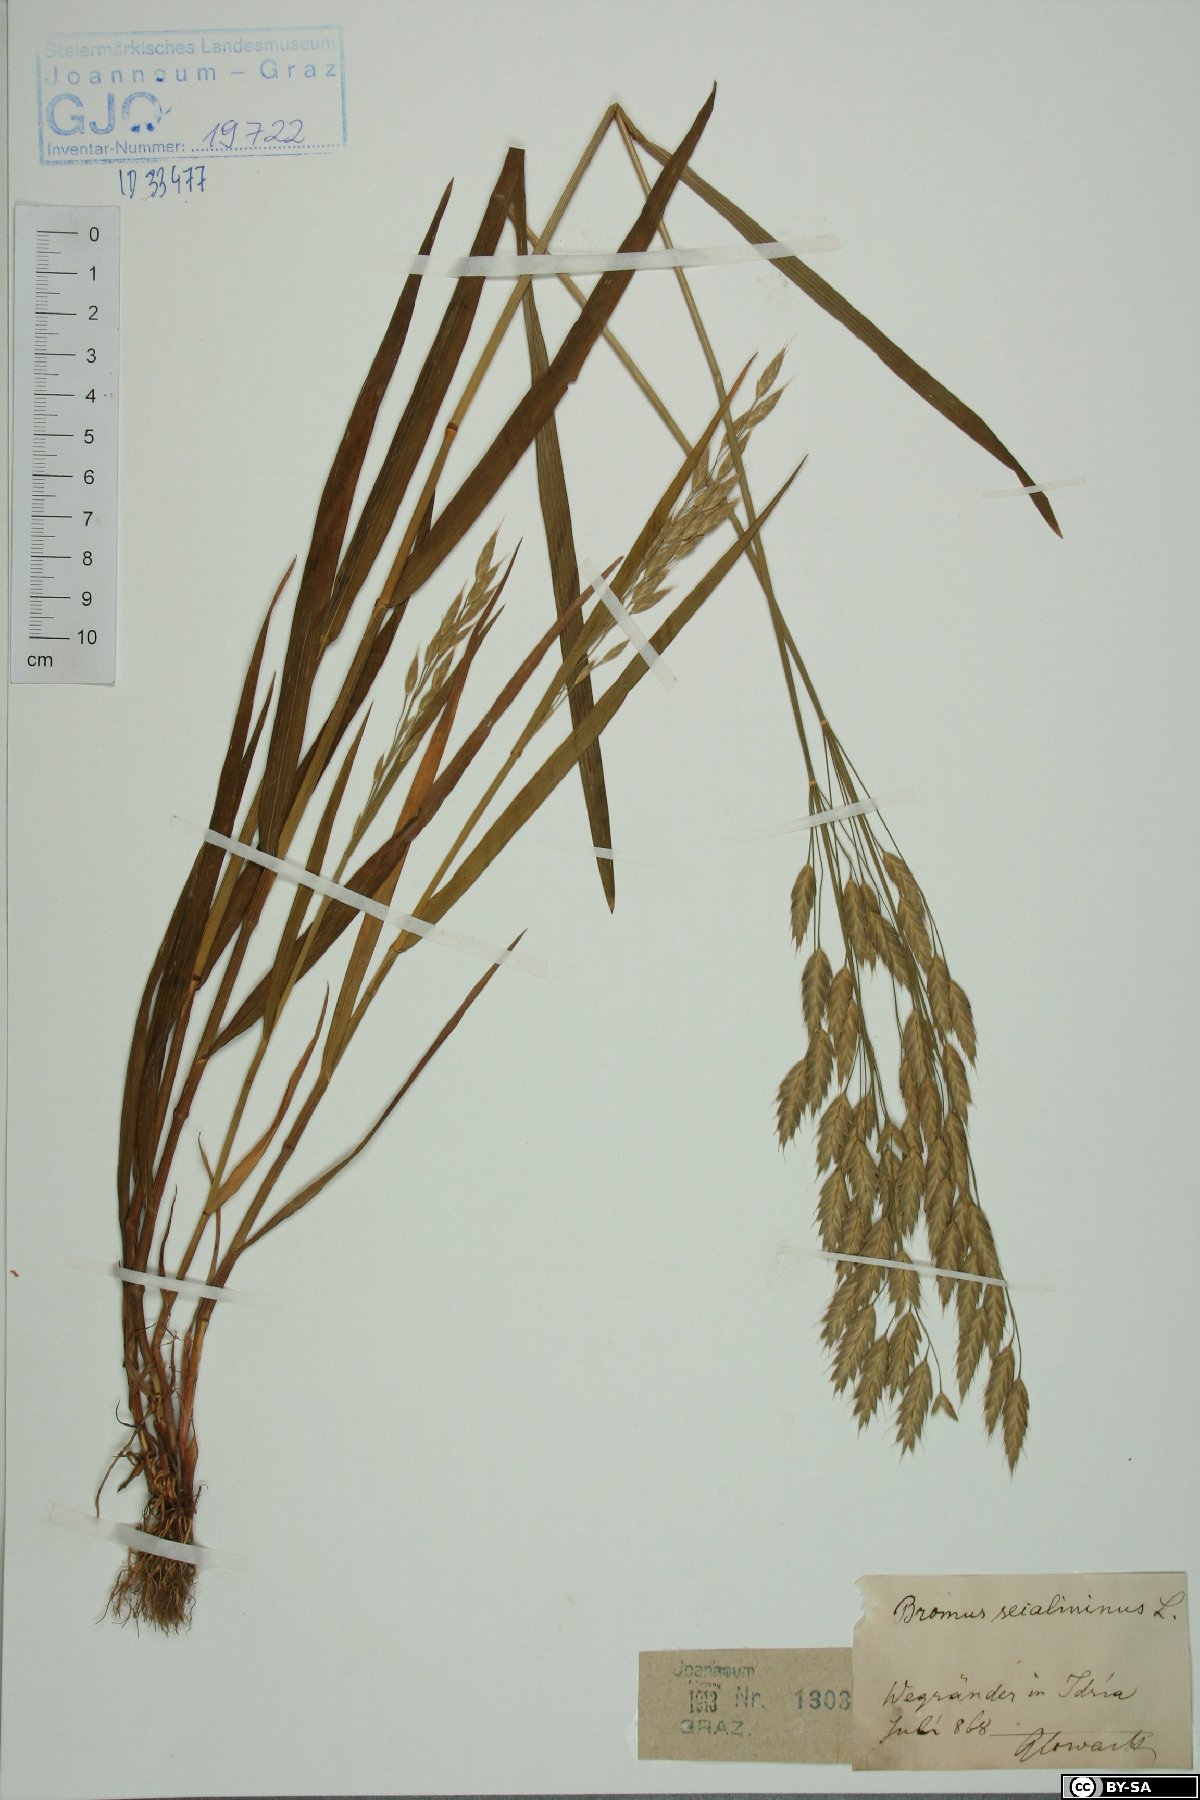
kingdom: Plantae
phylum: Tracheophyta
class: Liliopsida
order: Poales
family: Poaceae
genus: Bromus
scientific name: Bromus secalinus
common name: Rye brome
